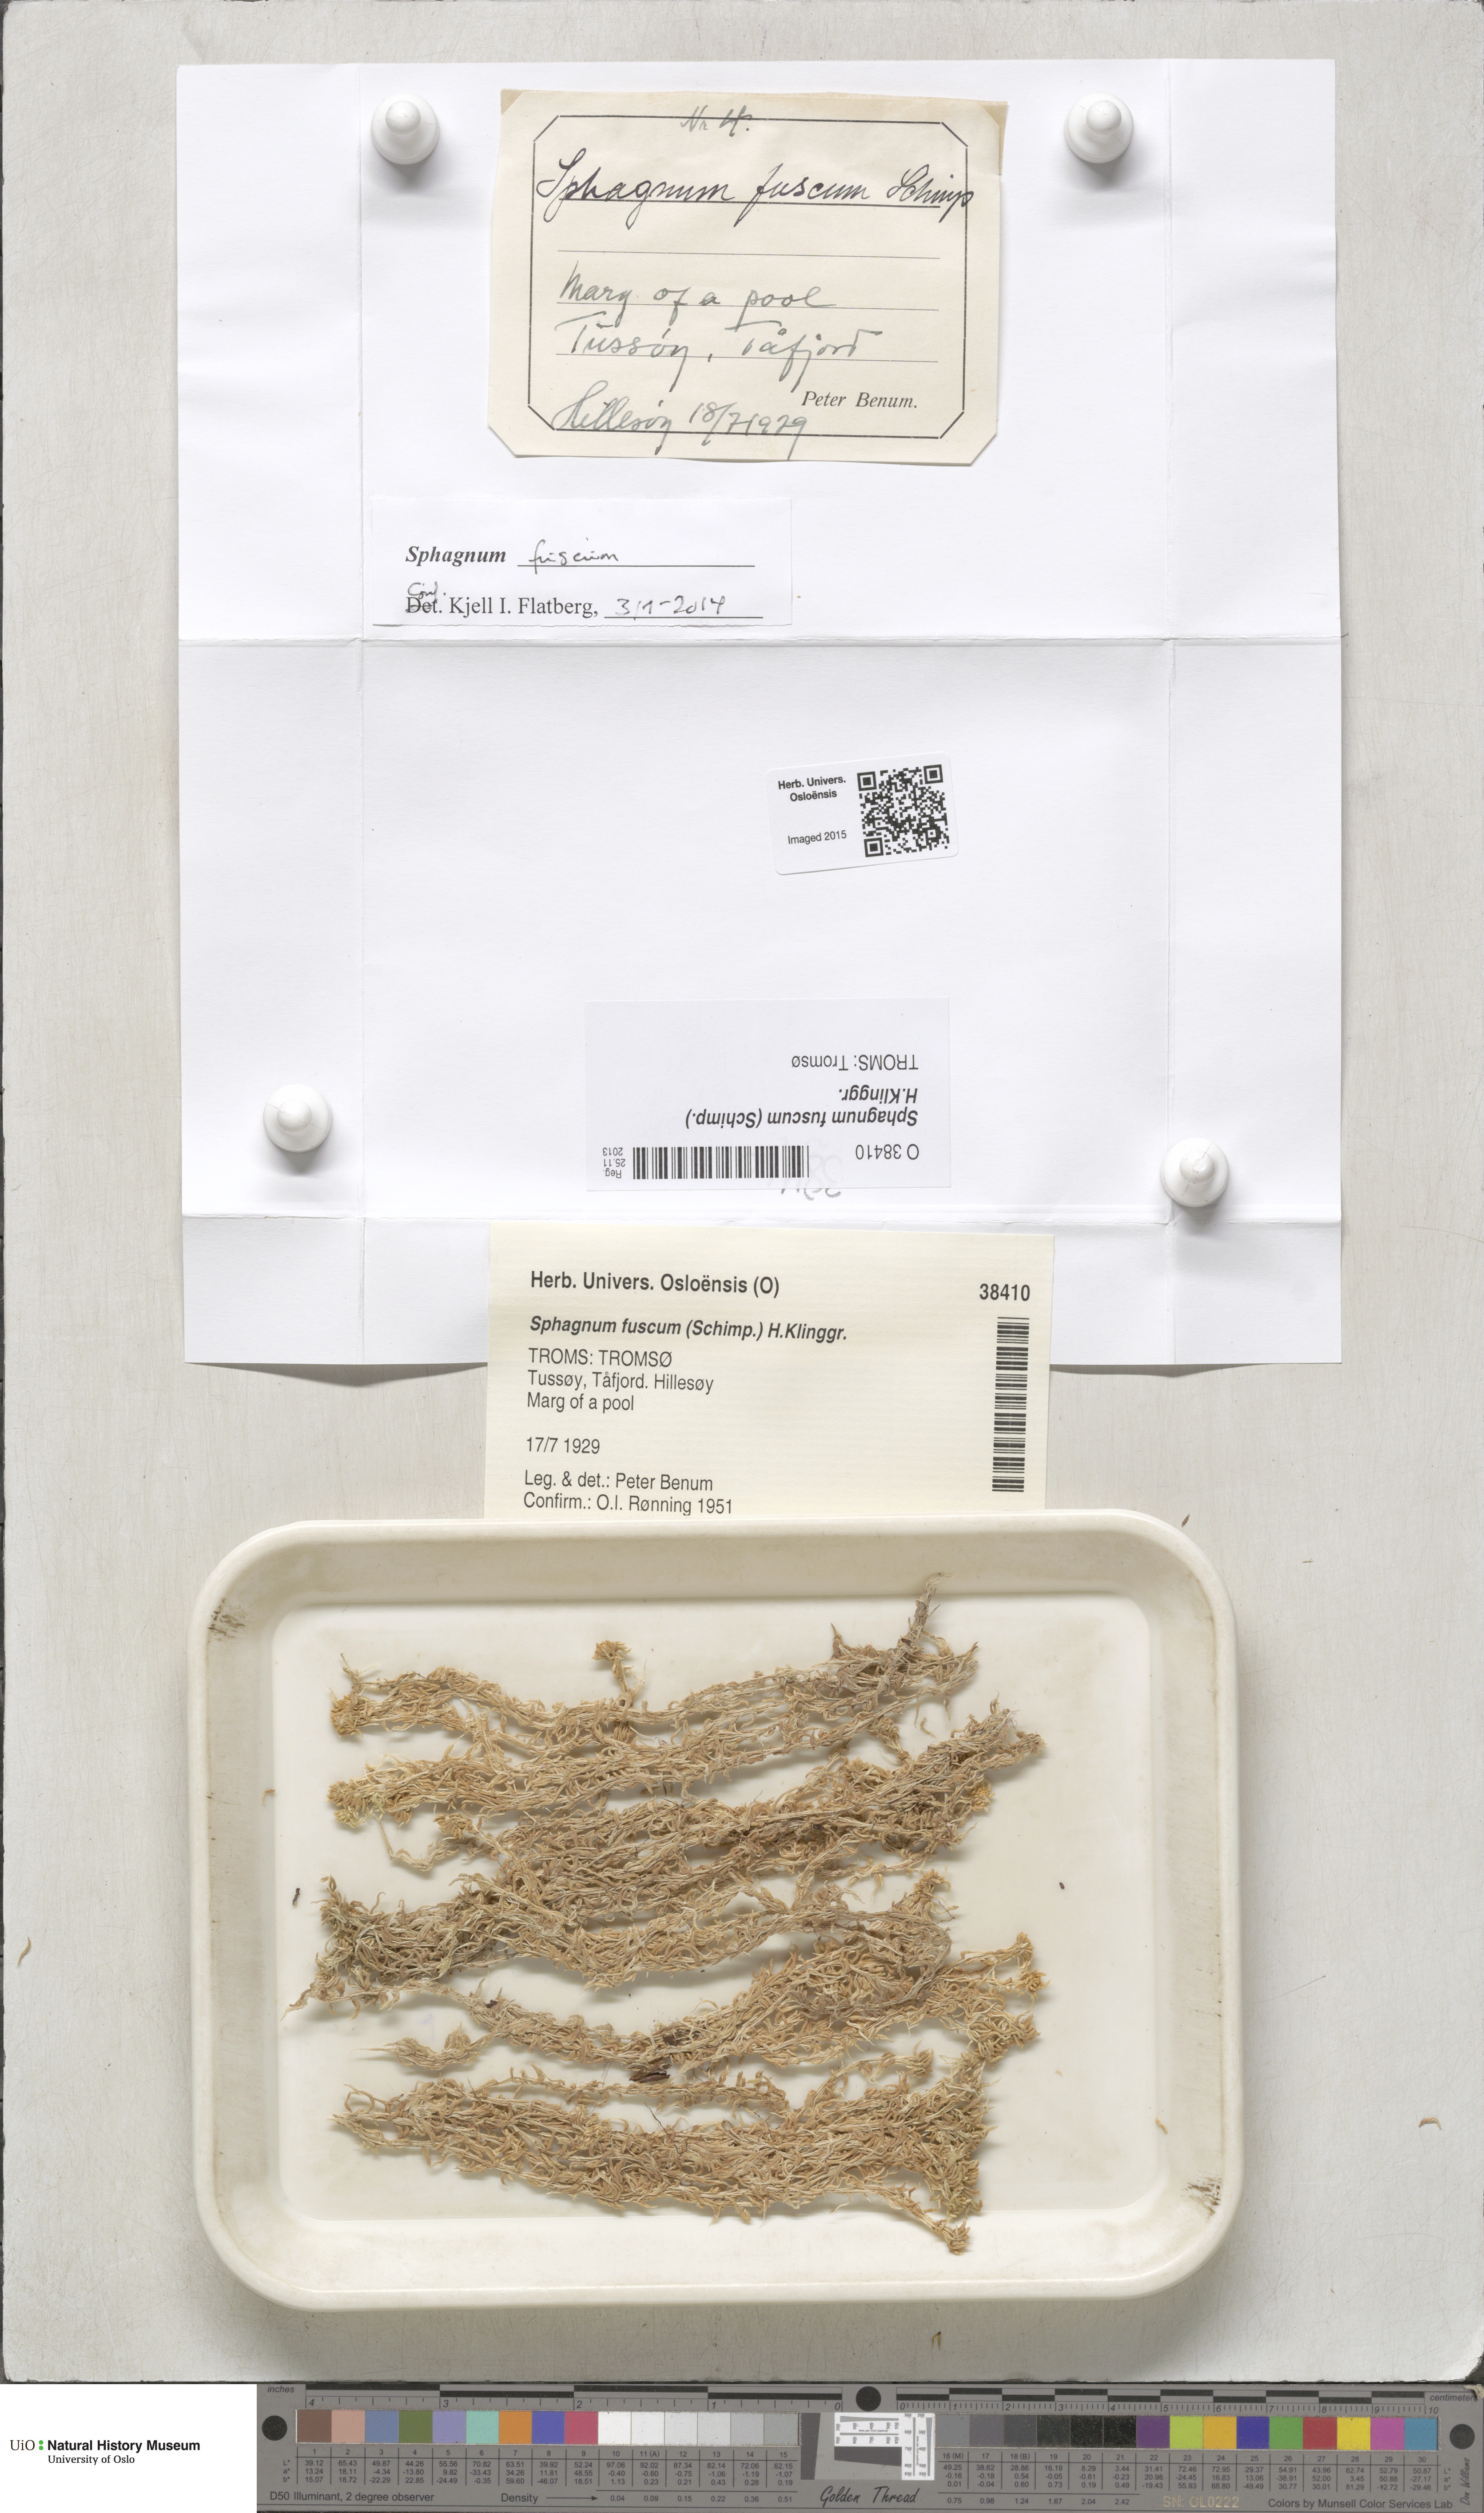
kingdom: Plantae
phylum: Bryophyta
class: Sphagnopsida
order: Sphagnales
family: Sphagnaceae
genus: Sphagnum
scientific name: Sphagnum fuscum
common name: Brown peat moss
